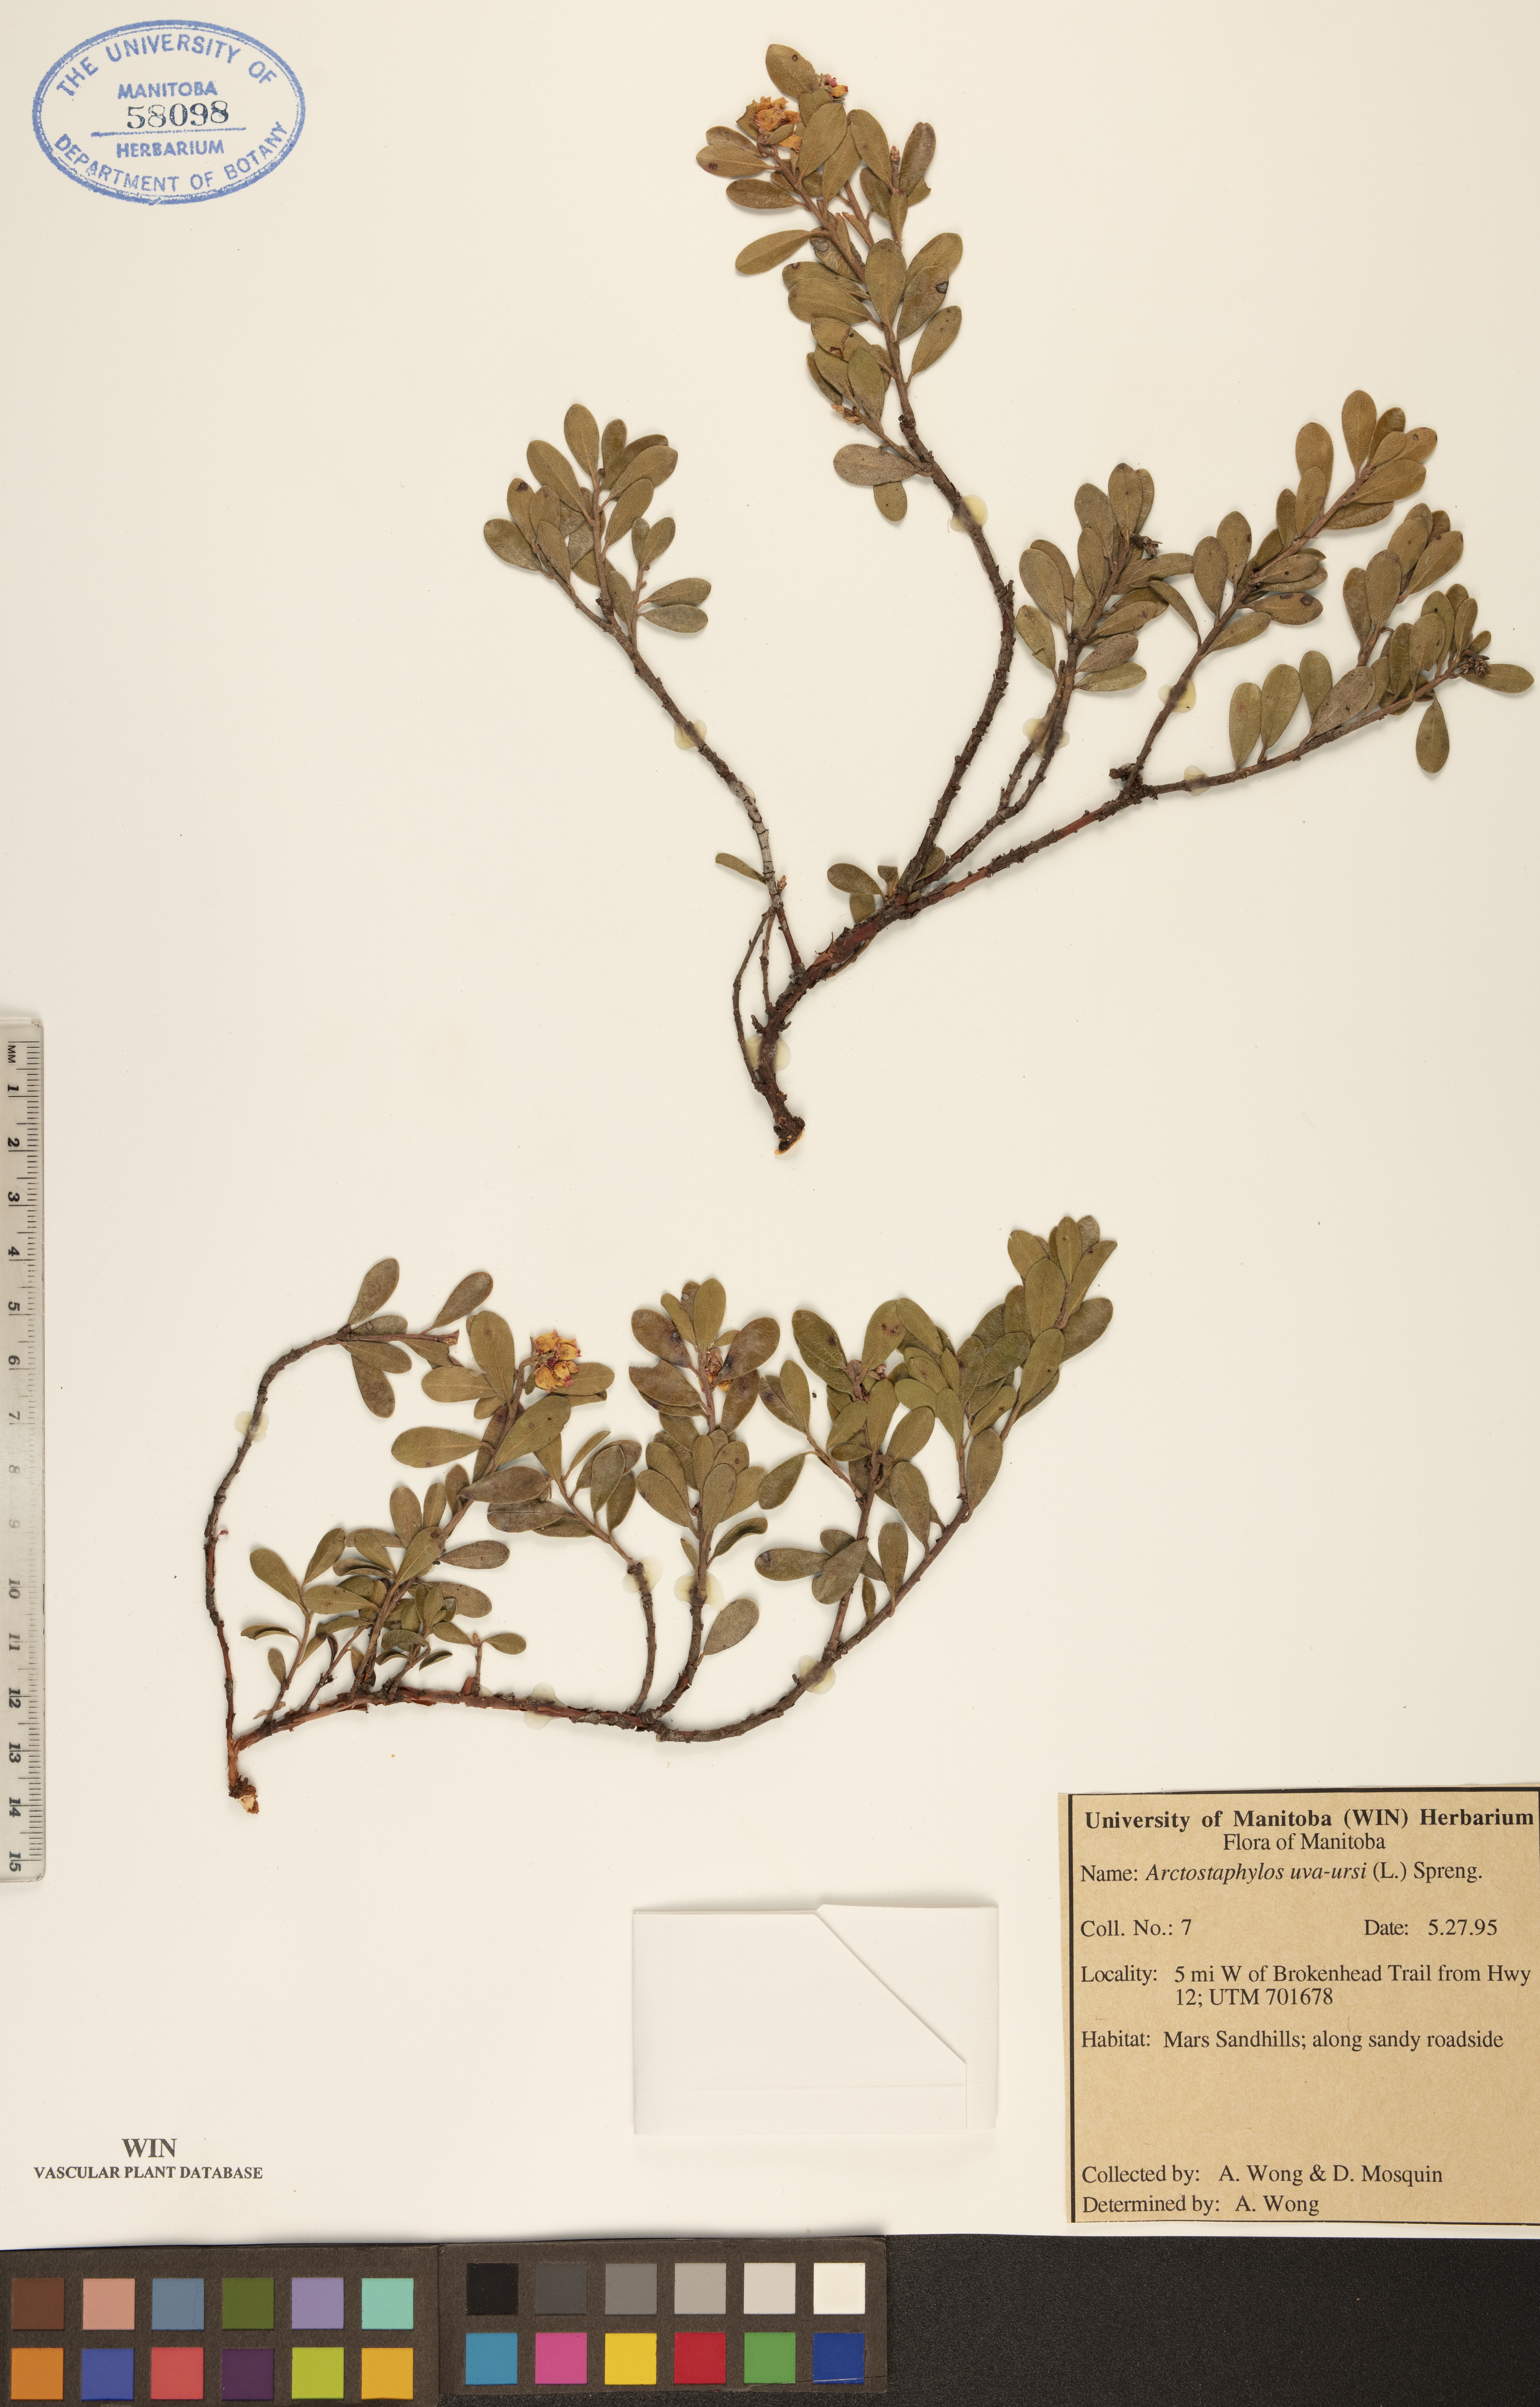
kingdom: Plantae
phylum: Tracheophyta
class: Magnoliopsida
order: Ericales
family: Ericaceae
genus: Arctostaphylos
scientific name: Arctostaphylos uva-ursi
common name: Bearberry
